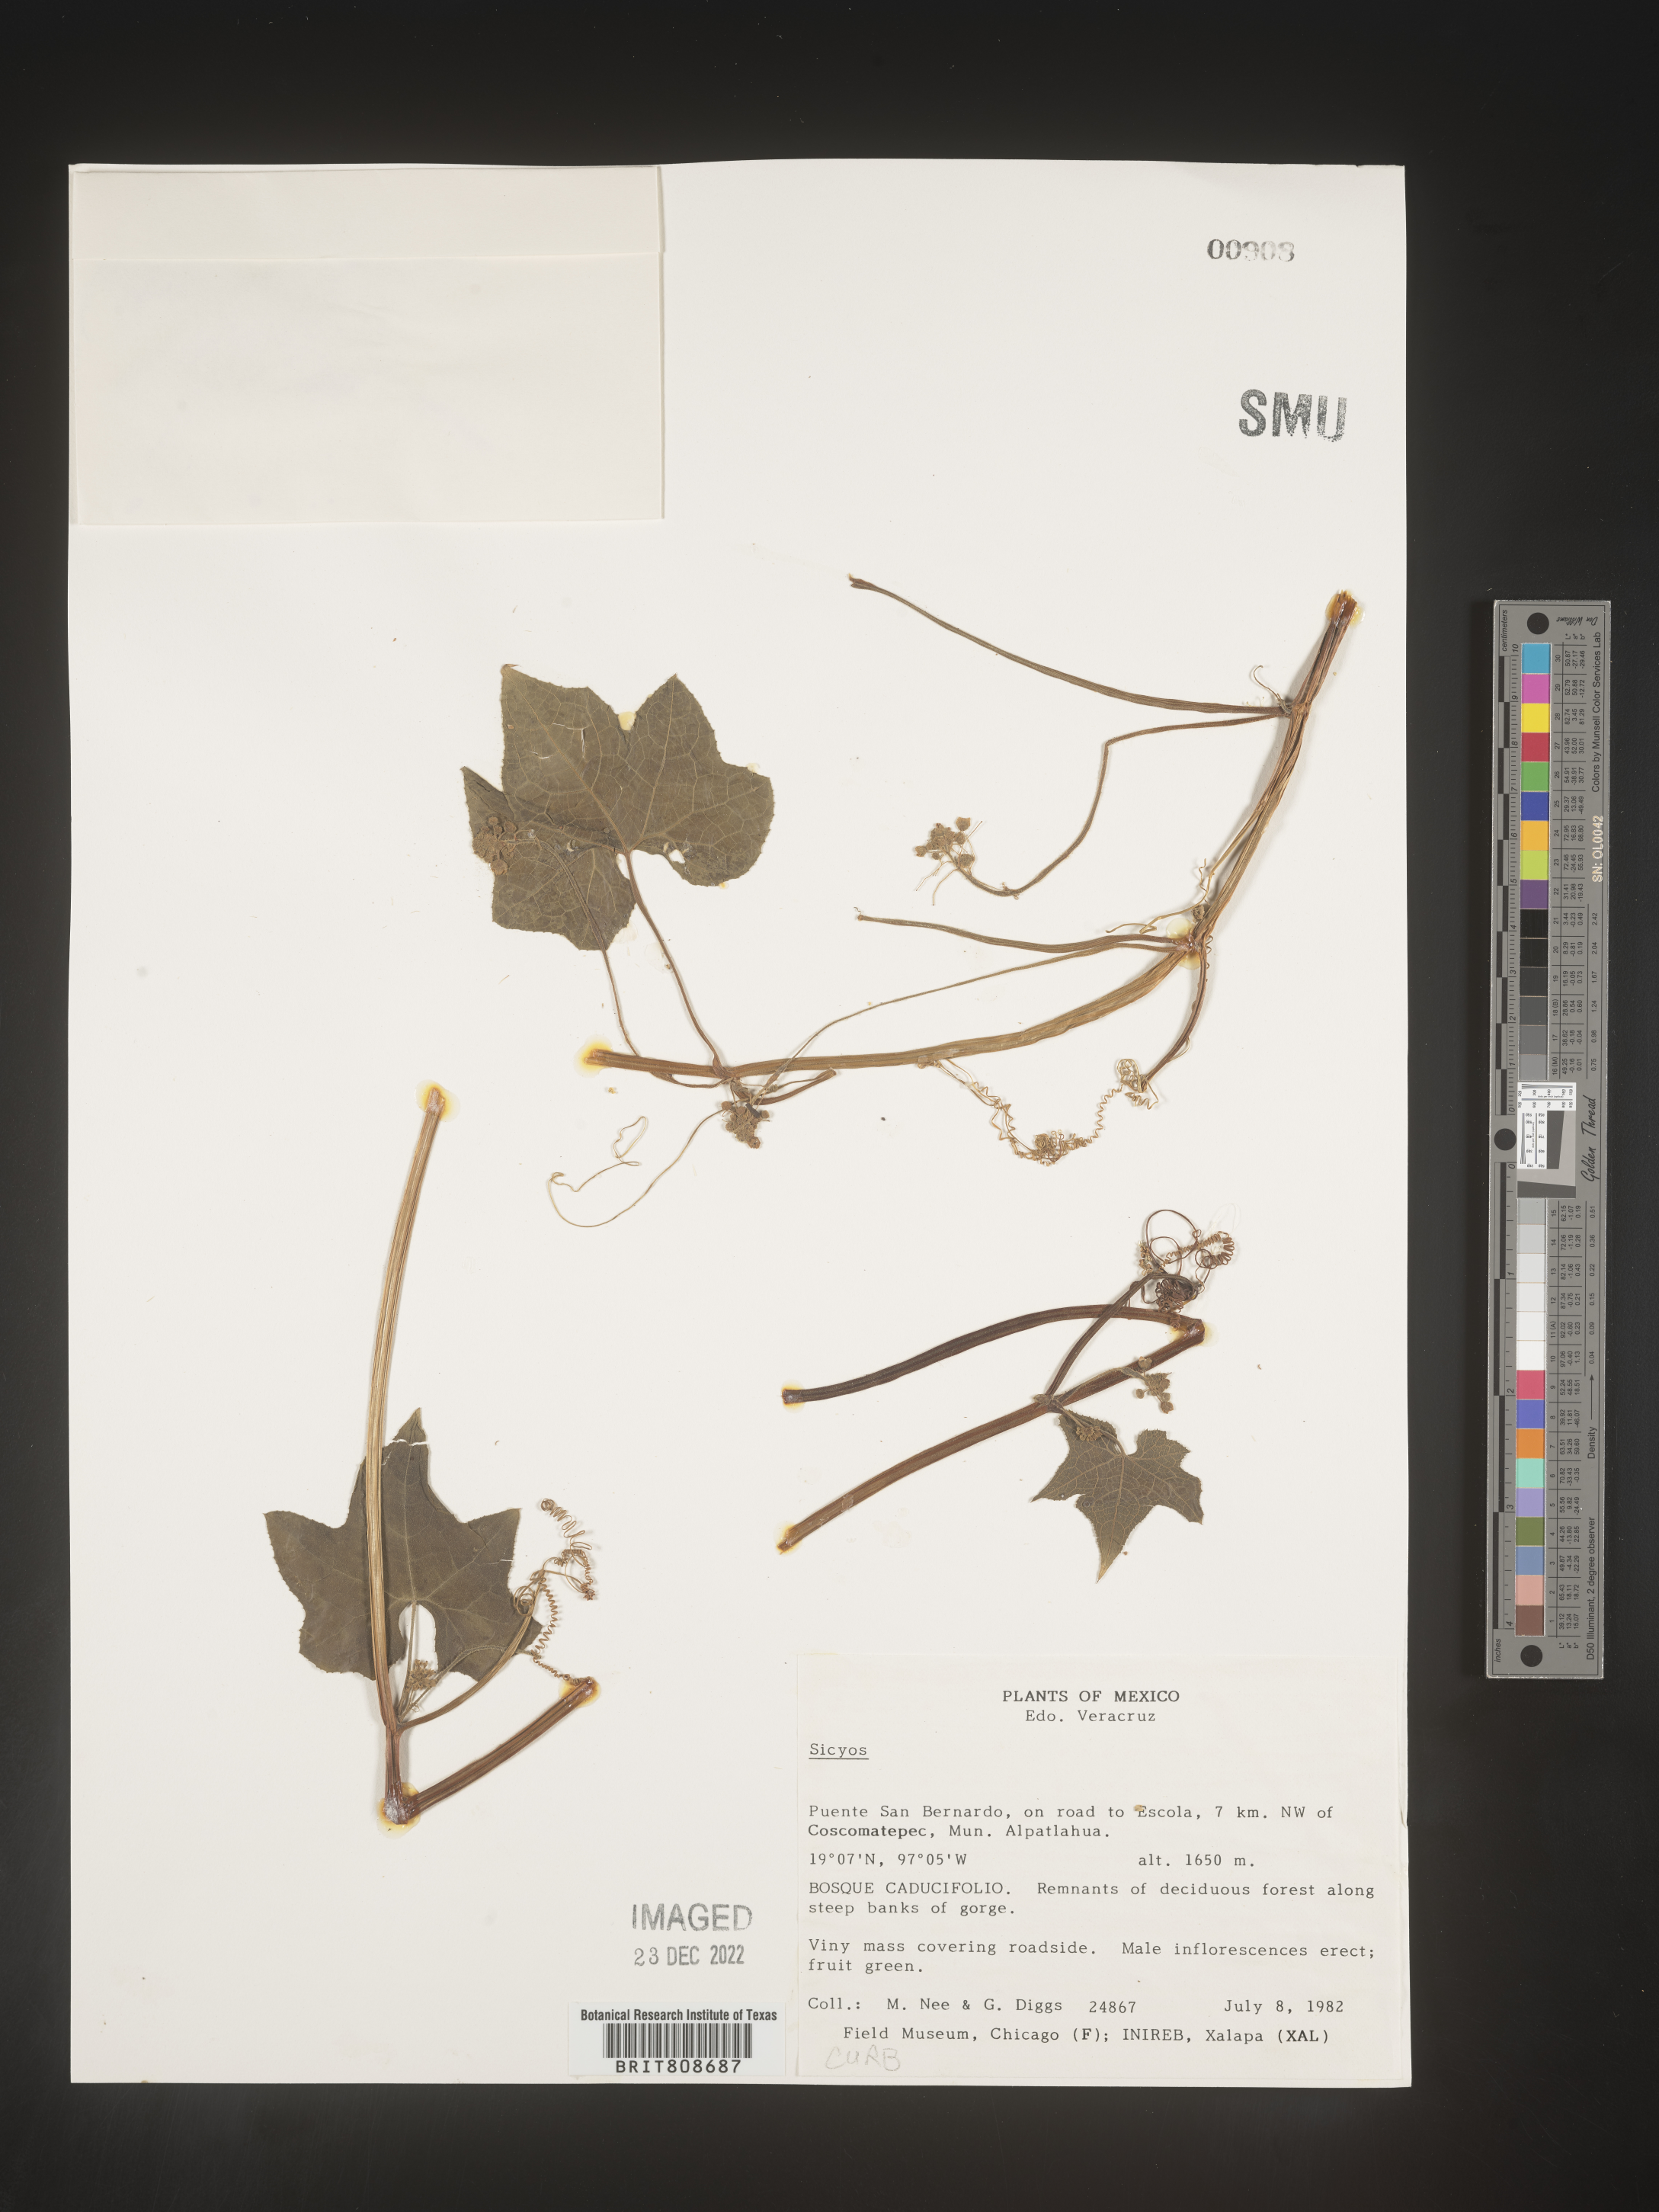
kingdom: Plantae
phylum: Tracheophyta
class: Magnoliopsida
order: Cucurbitales
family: Cucurbitaceae
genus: Sicyos
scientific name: Sicyos
